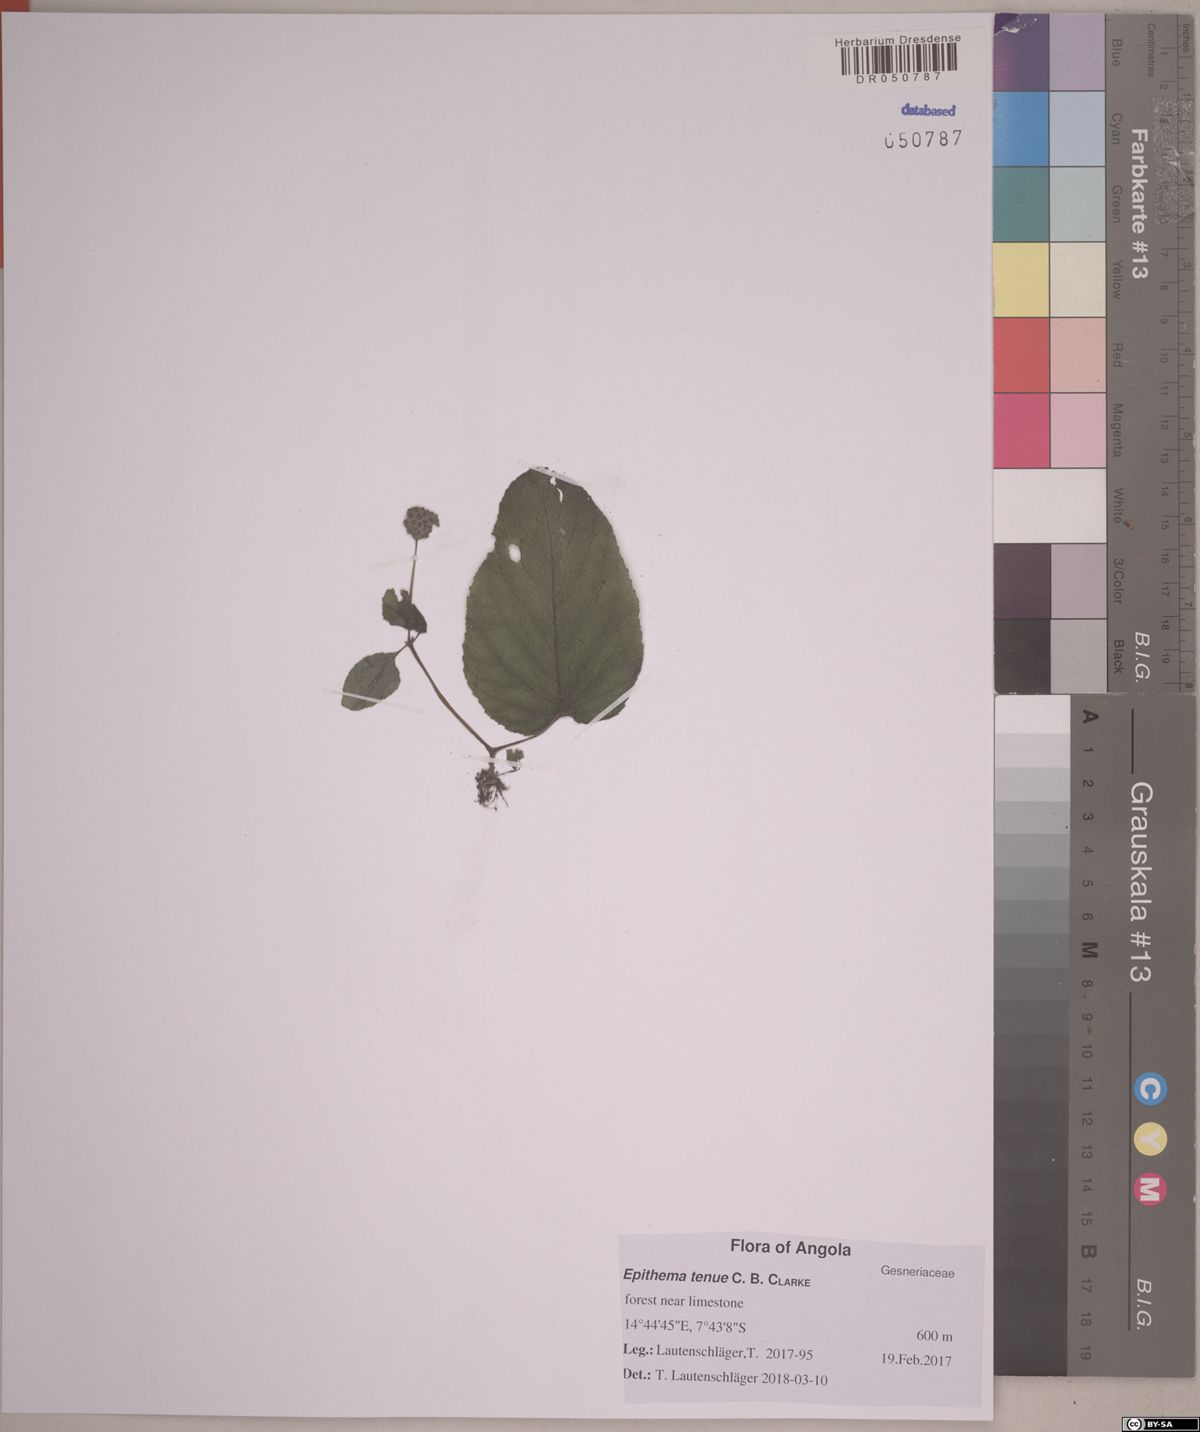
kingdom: Plantae
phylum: Tracheophyta
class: Magnoliopsida
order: Lamiales
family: Gesneriaceae
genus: Epithema
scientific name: Epithema tenue
